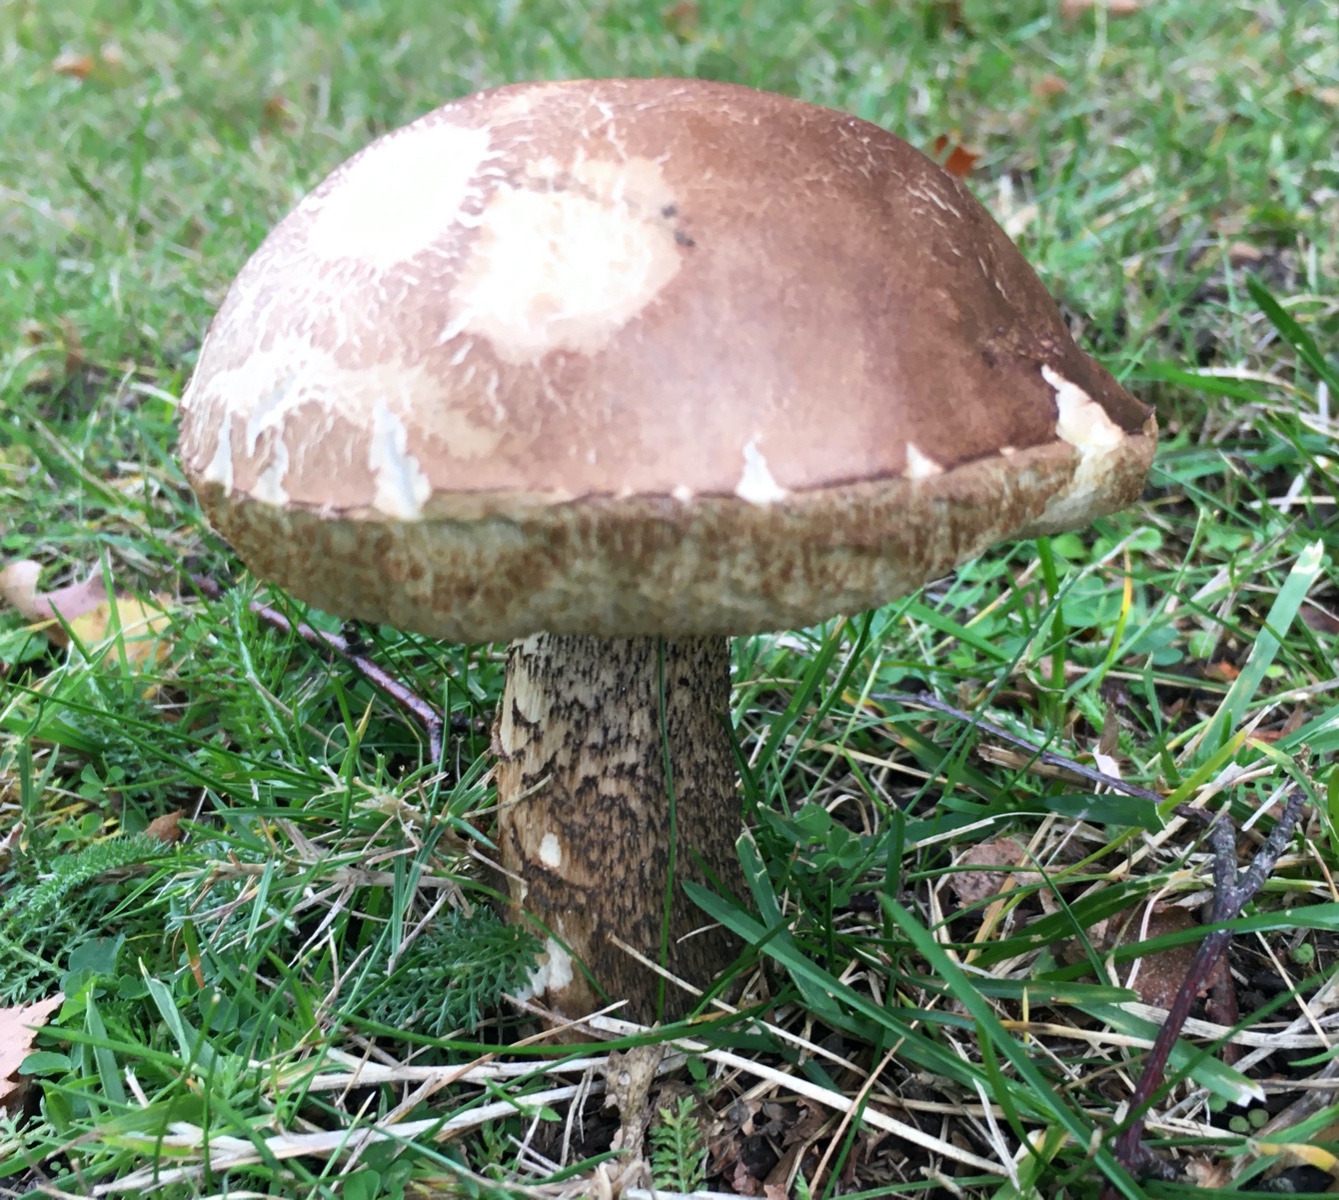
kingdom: Fungi
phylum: Basidiomycota
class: Agaricomycetes
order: Boletales
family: Boletaceae
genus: Leccinum
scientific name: Leccinum scabrum
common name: brun skælrørhat
